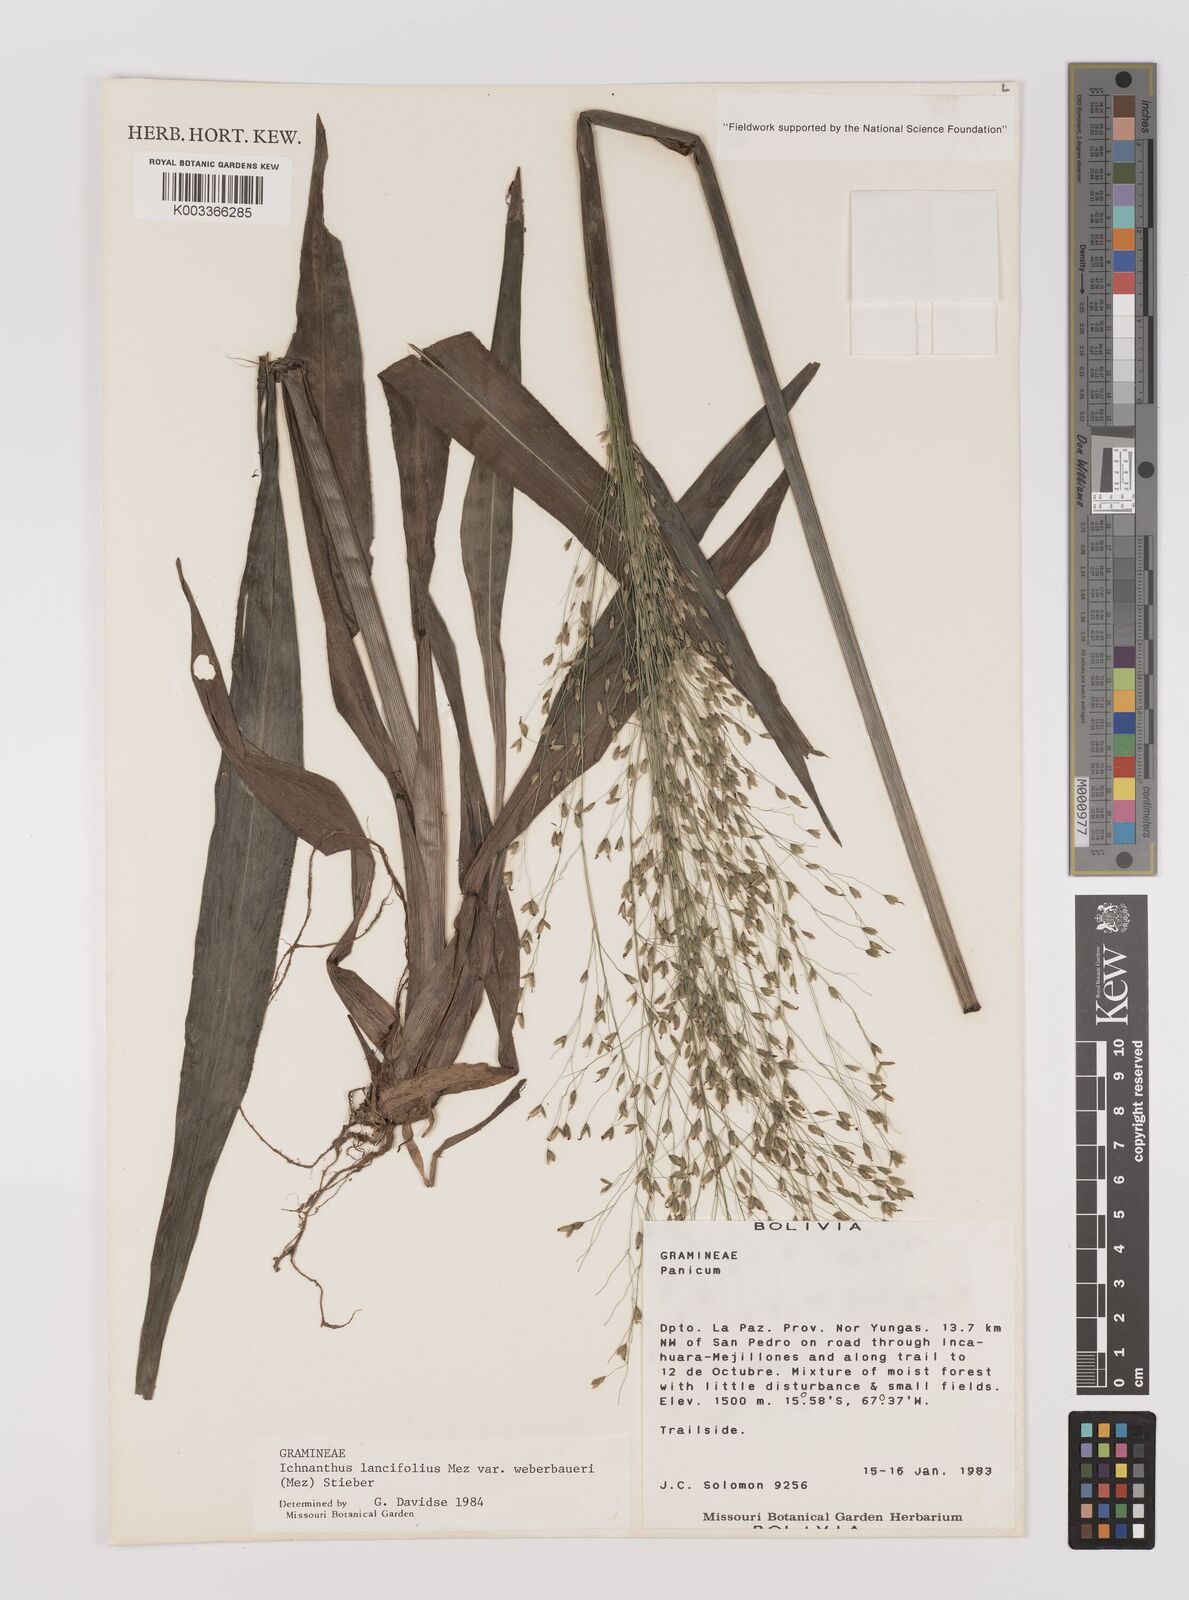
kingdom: Plantae
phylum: Tracheophyta
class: Liliopsida
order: Poales
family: Poaceae
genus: Ichnanthus
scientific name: Ichnanthus lancifolius
